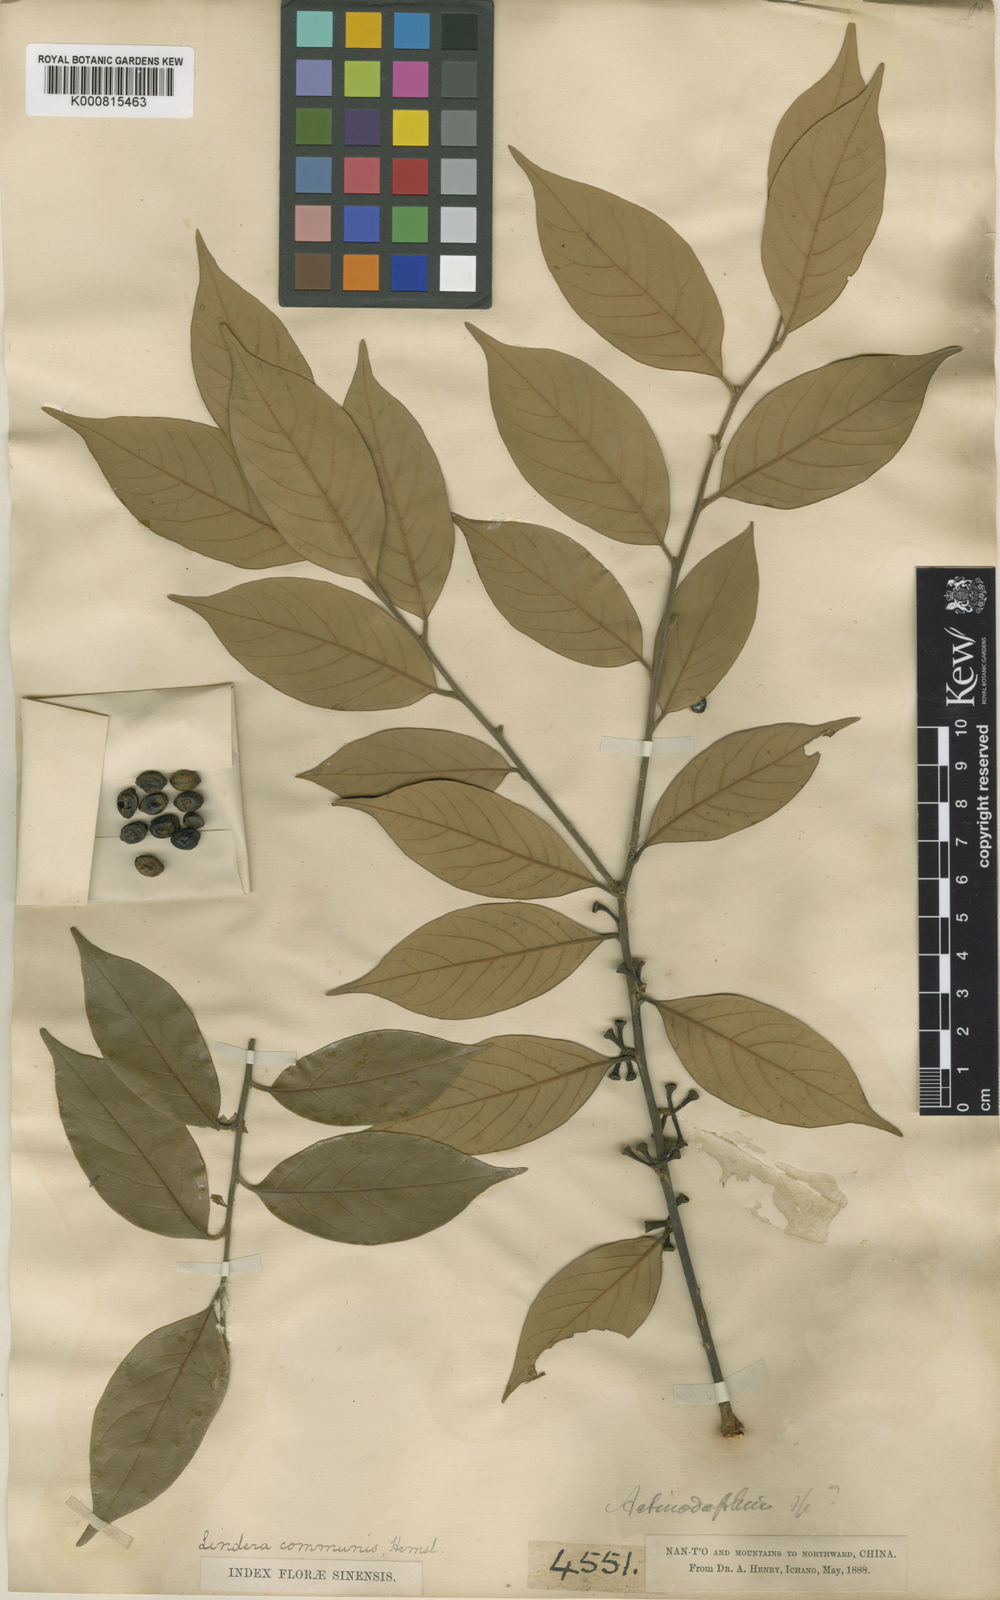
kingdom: Plantae
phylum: Tracheophyta
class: Magnoliopsida
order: Laurales
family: Lauraceae
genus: Lindera
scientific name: Lindera communis
